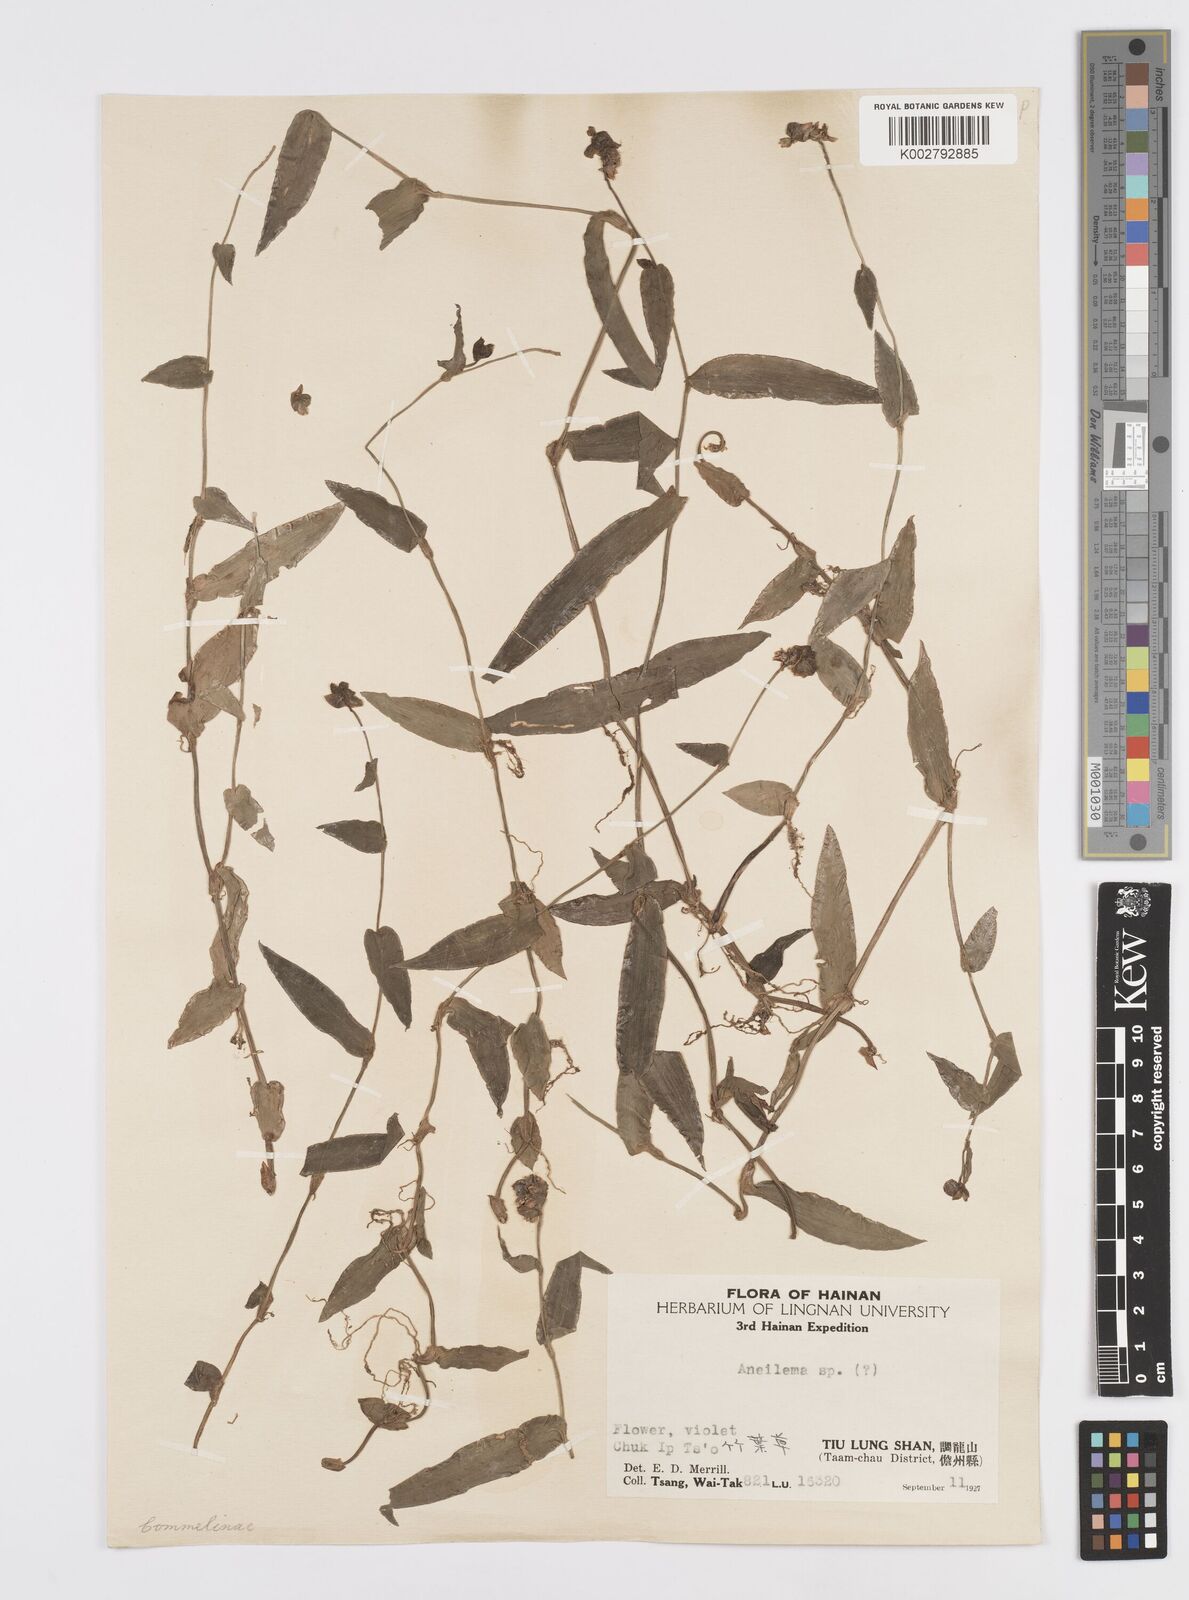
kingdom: Plantae
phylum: Tracheophyta
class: Liliopsida
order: Commelinales
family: Commelinaceae
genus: Murdannia
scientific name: Murdannia
